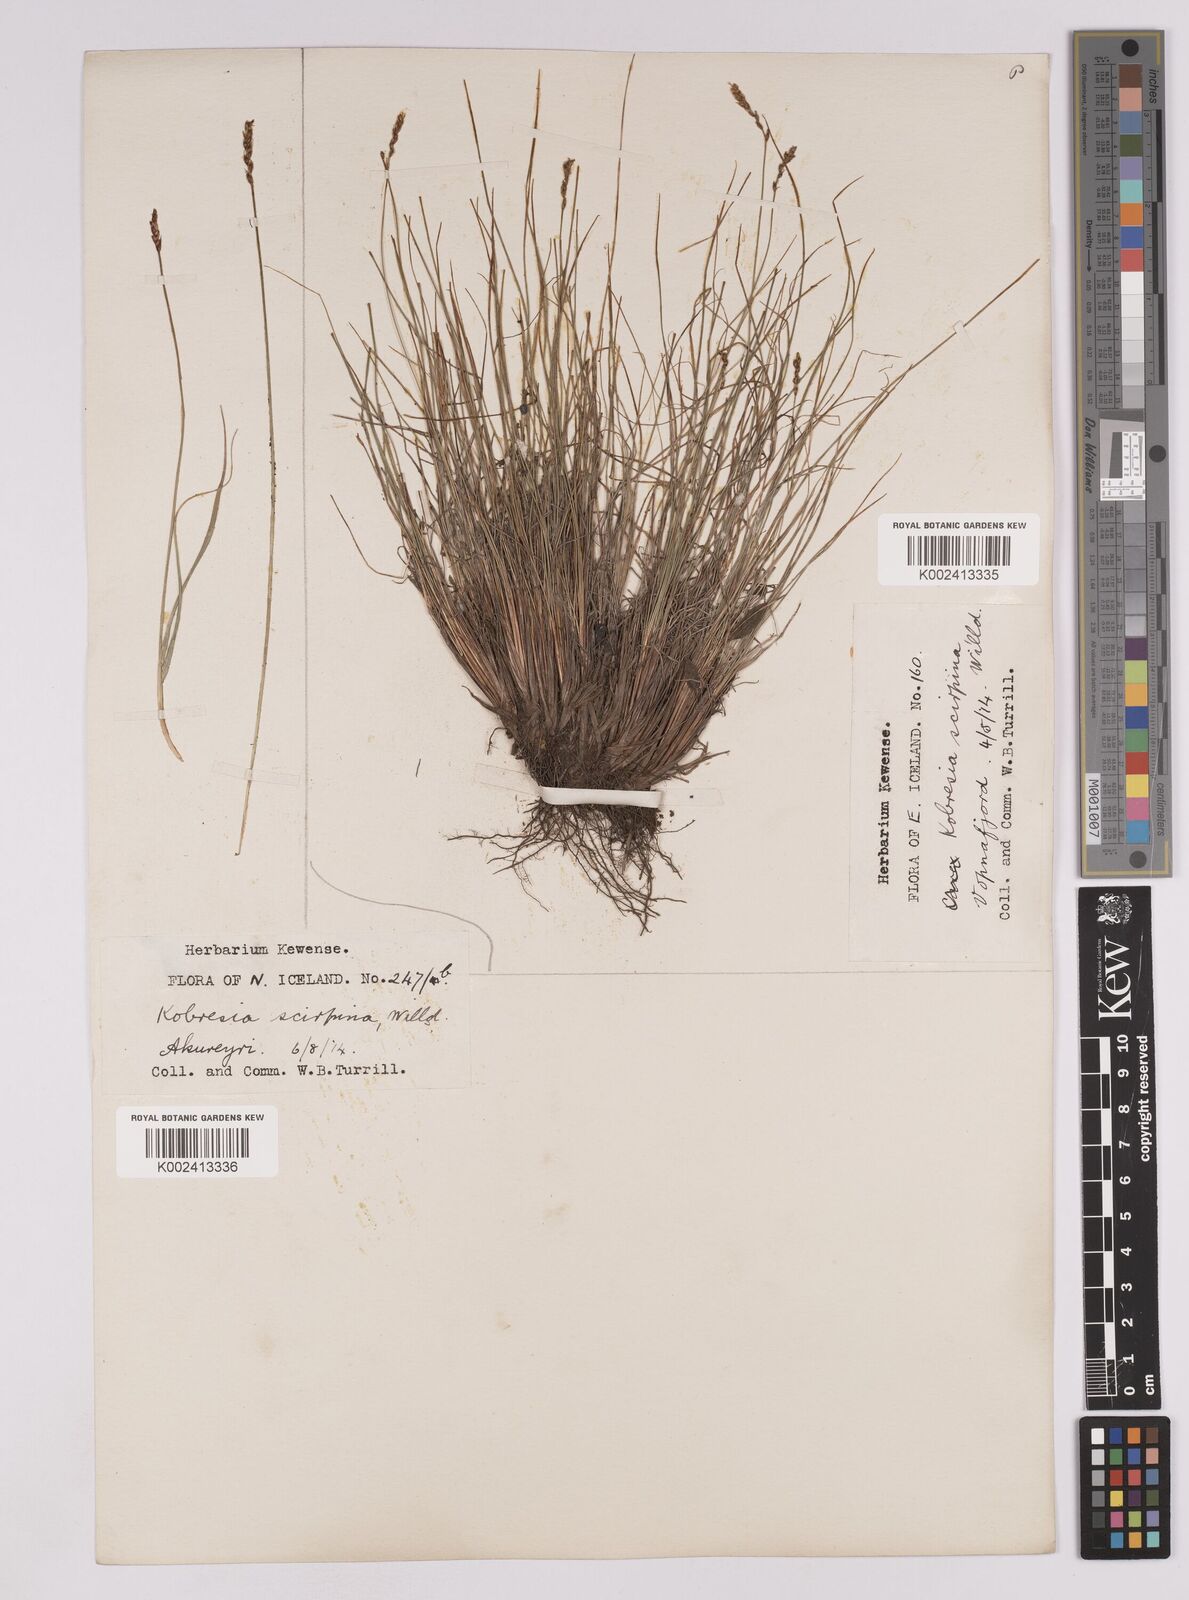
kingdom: Plantae
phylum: Tracheophyta
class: Liliopsida
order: Poales
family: Cyperaceae
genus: Carex
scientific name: Carex myosuroides
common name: Bellard's bog sedge
